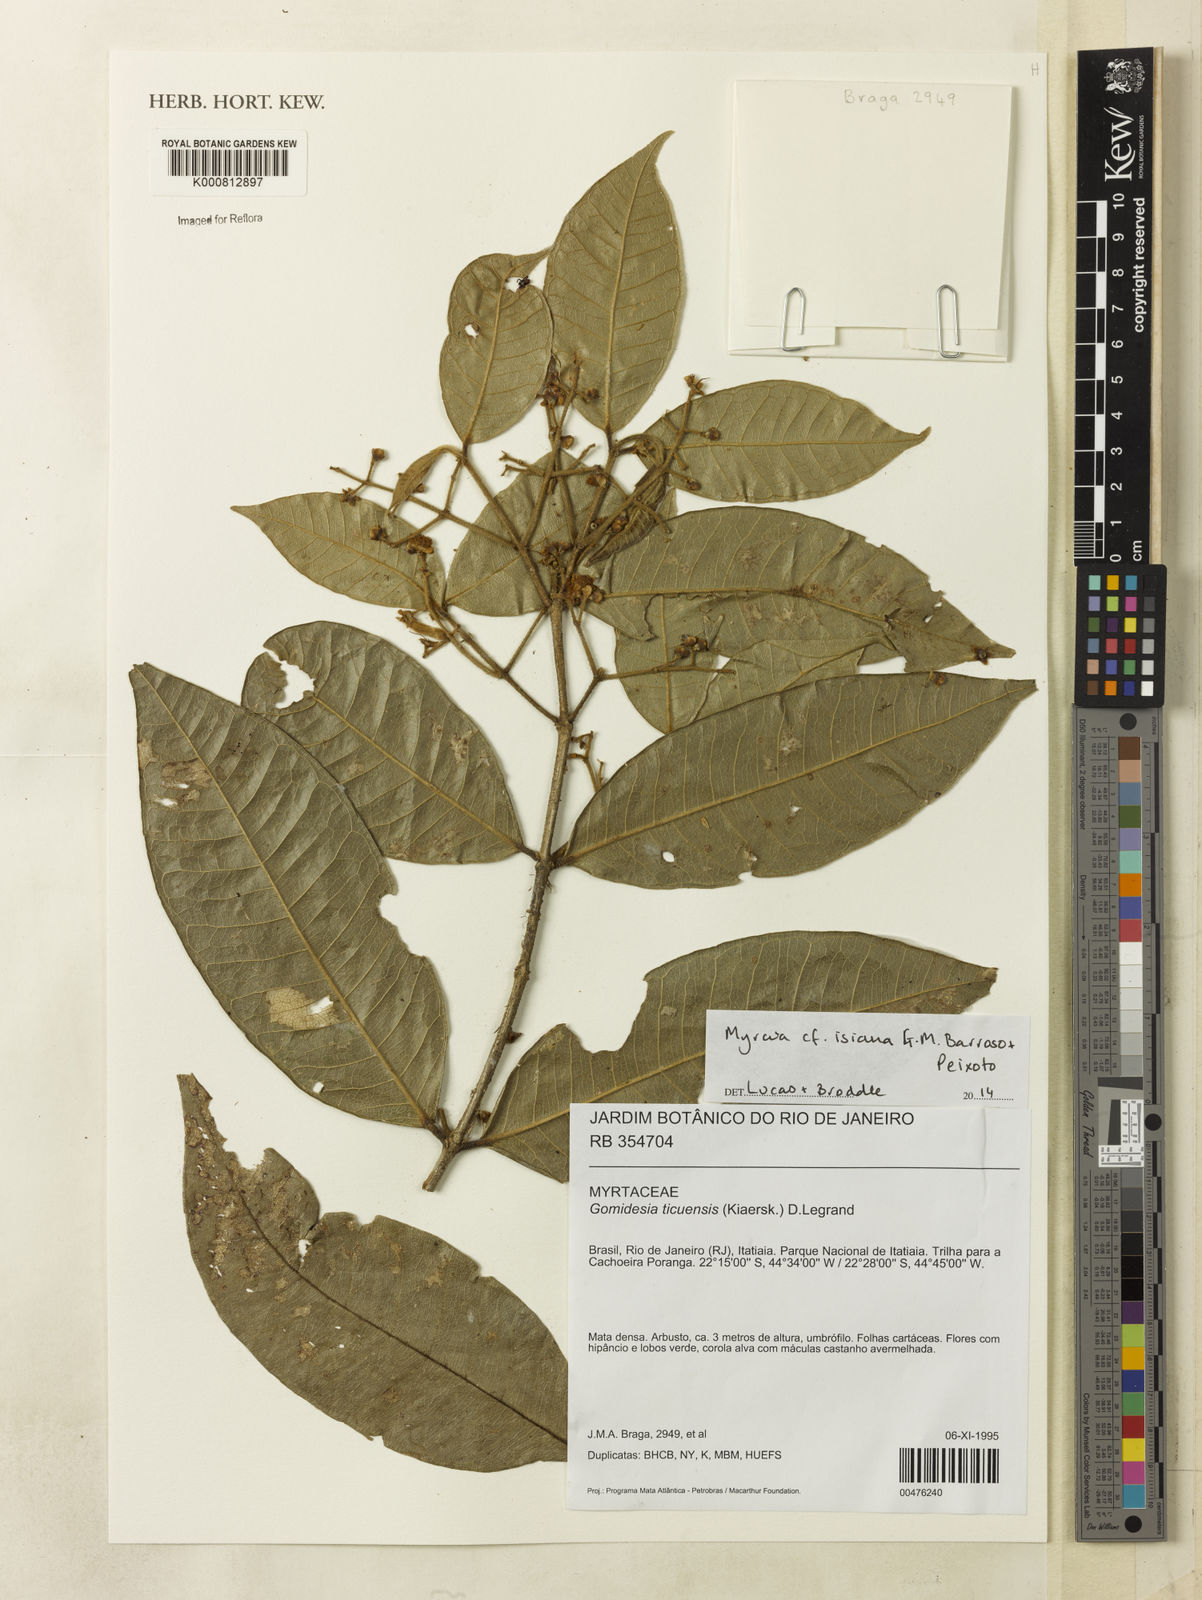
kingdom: Plantae
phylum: Tracheophyta
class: Magnoliopsida
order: Myrtales
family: Myrtaceae
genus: Myrcia
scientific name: Myrcia
